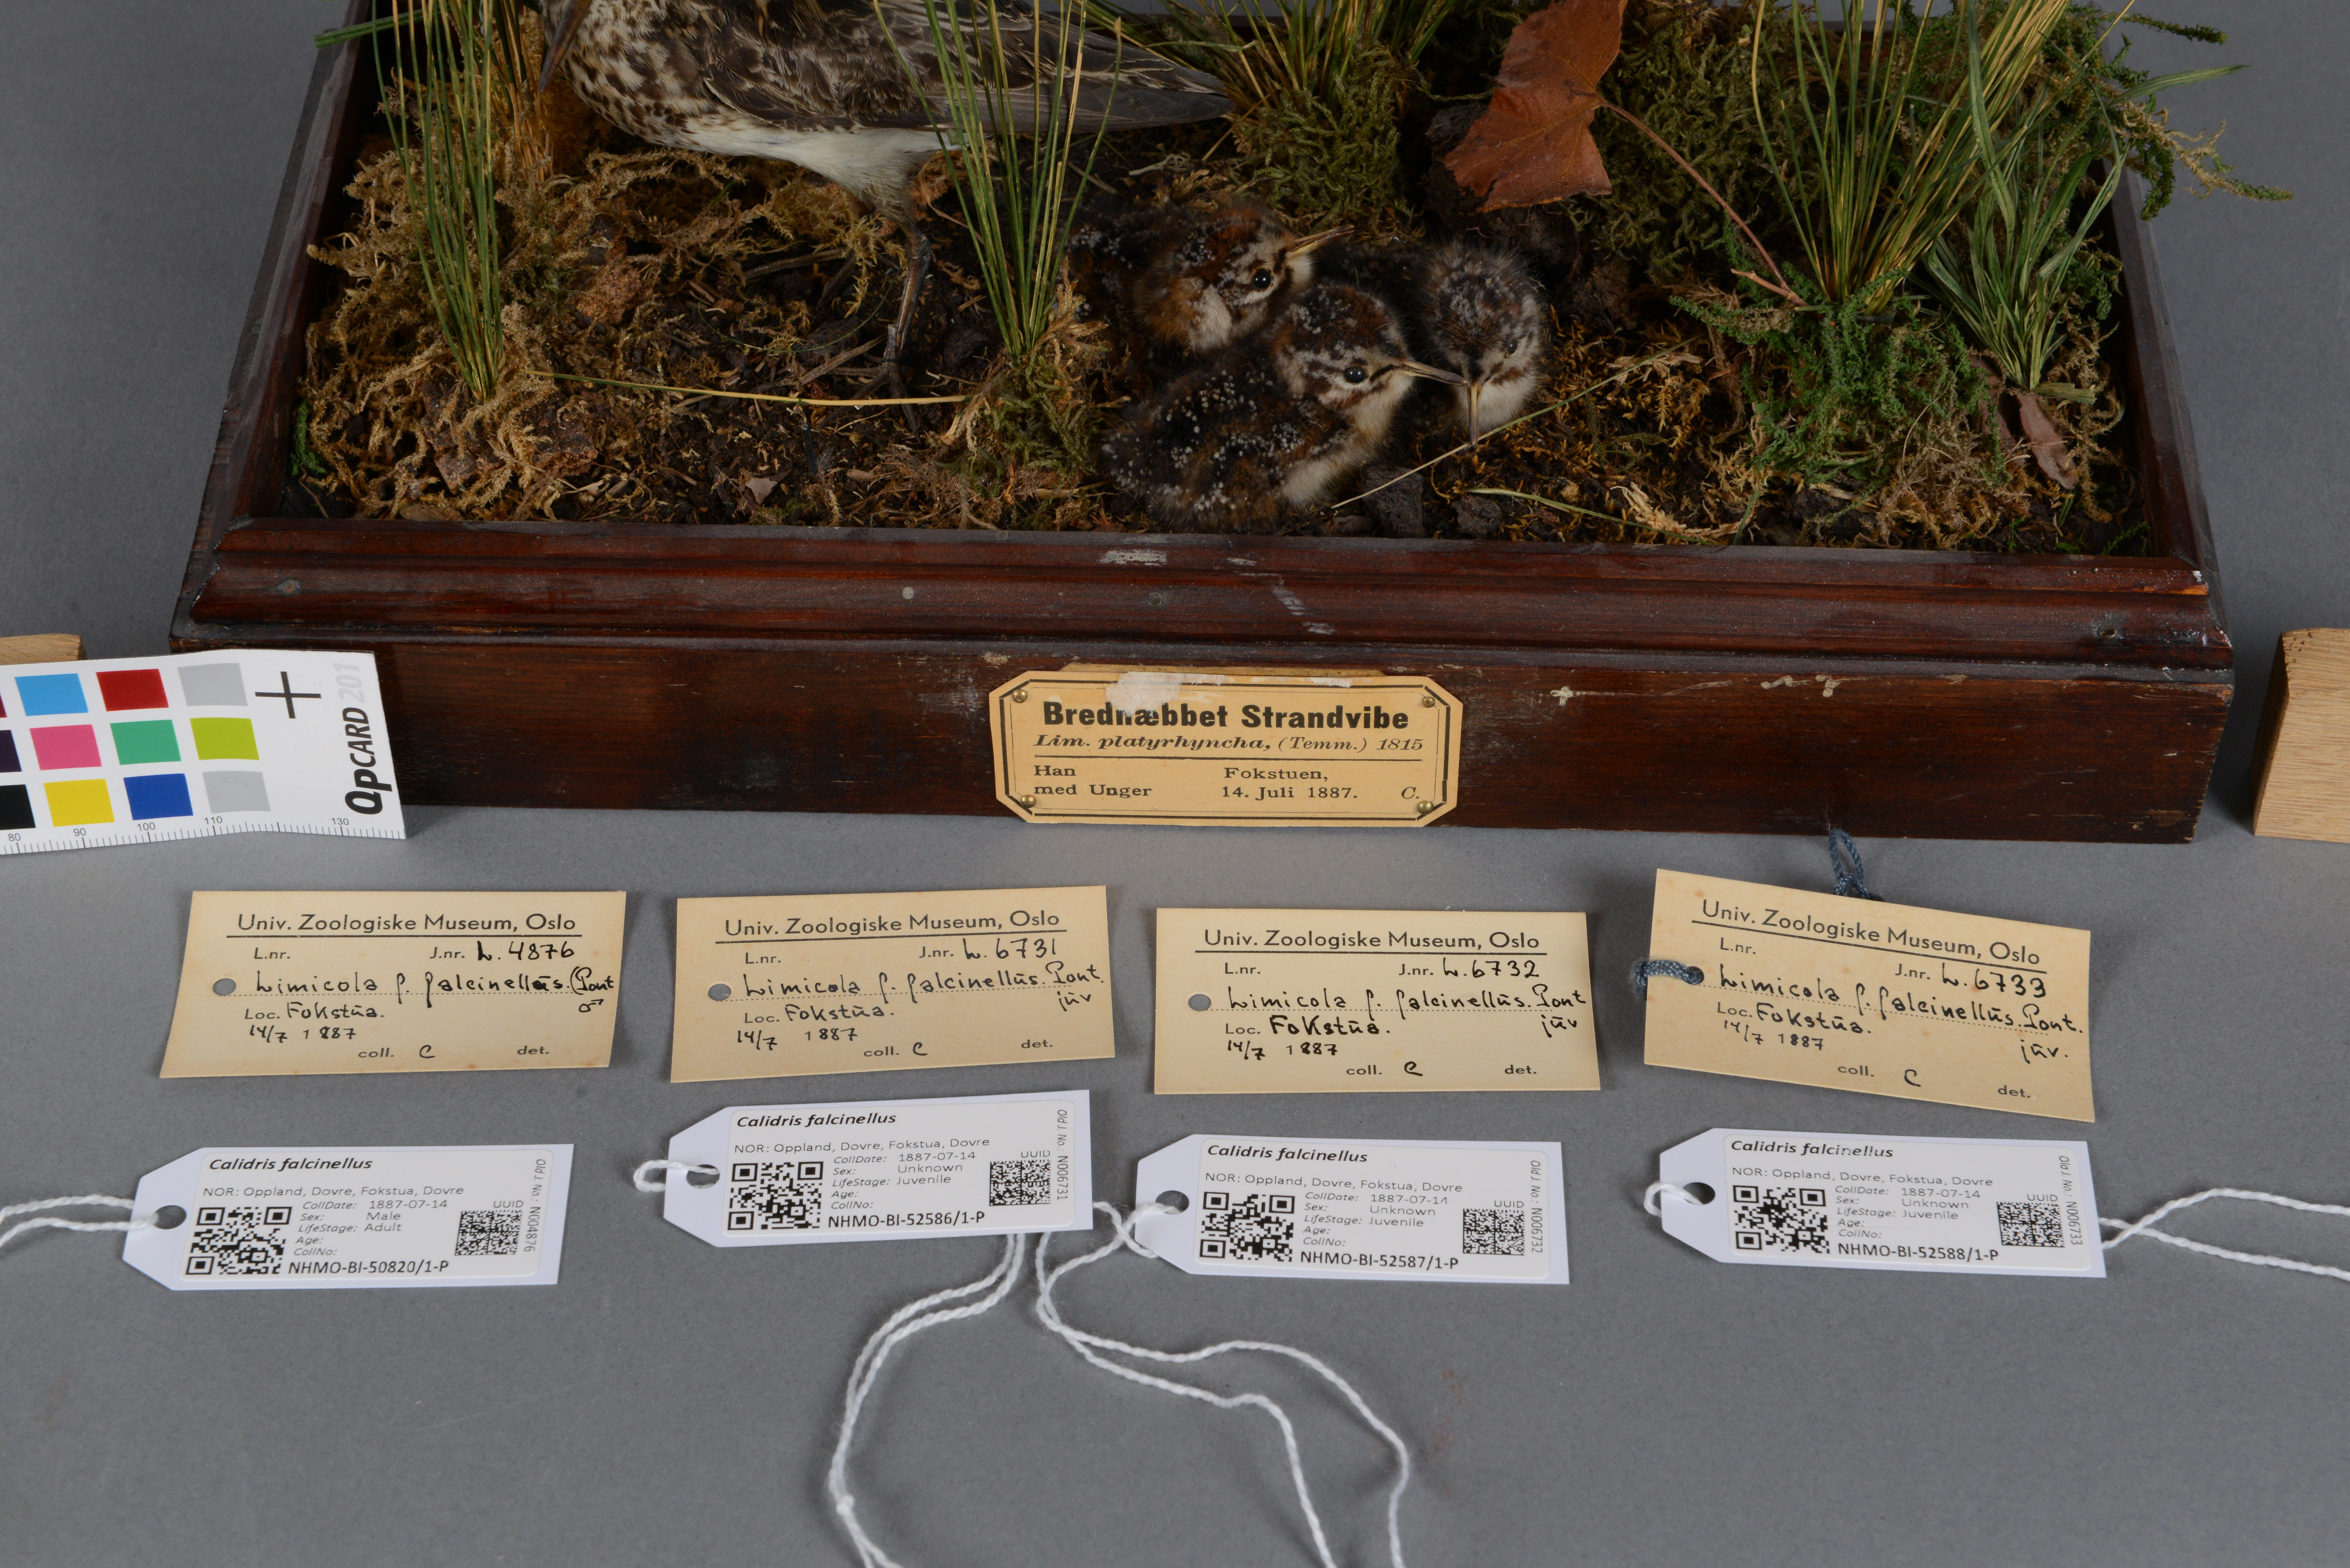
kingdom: Animalia
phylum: Chordata
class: Aves
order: Charadriiformes
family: Scolopacidae
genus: Calidris
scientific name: Calidris falcinellus
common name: Broad-billed sandpiper
